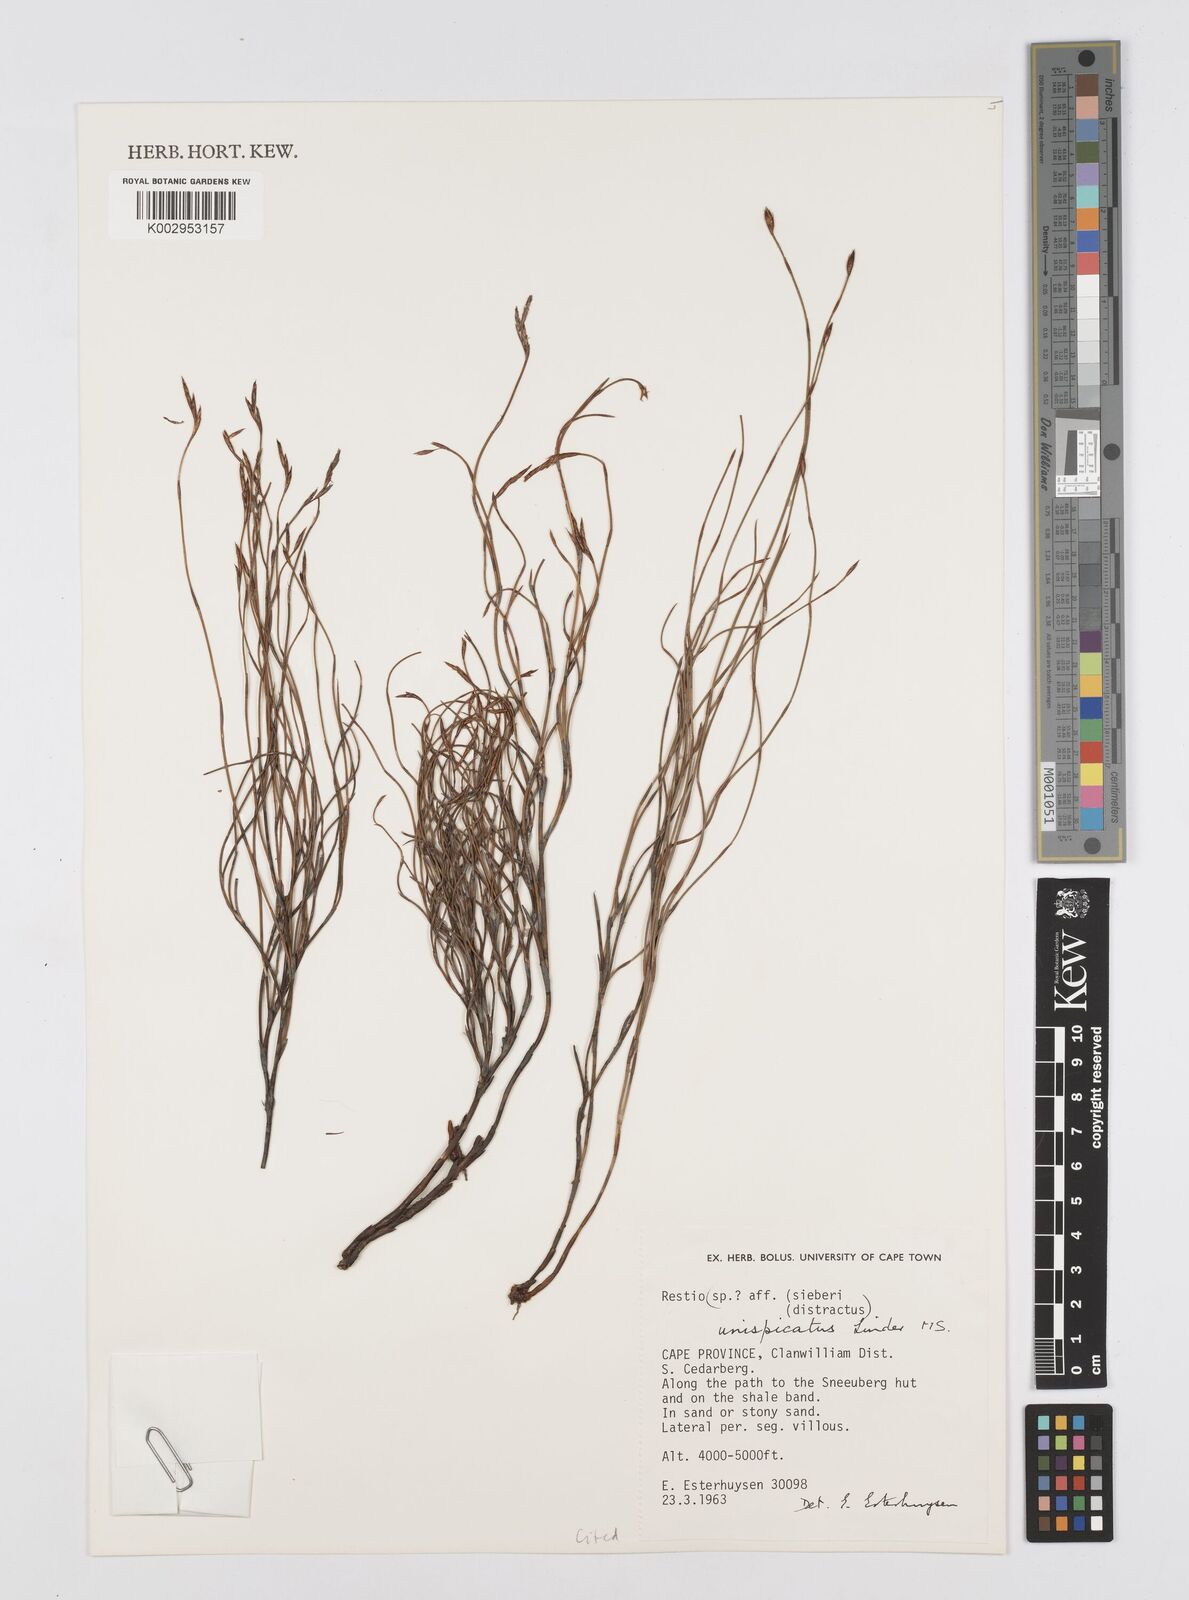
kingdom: Plantae
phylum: Tracheophyta
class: Liliopsida
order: Poales
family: Restionaceae
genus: Restio
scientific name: Restio unispicatus
